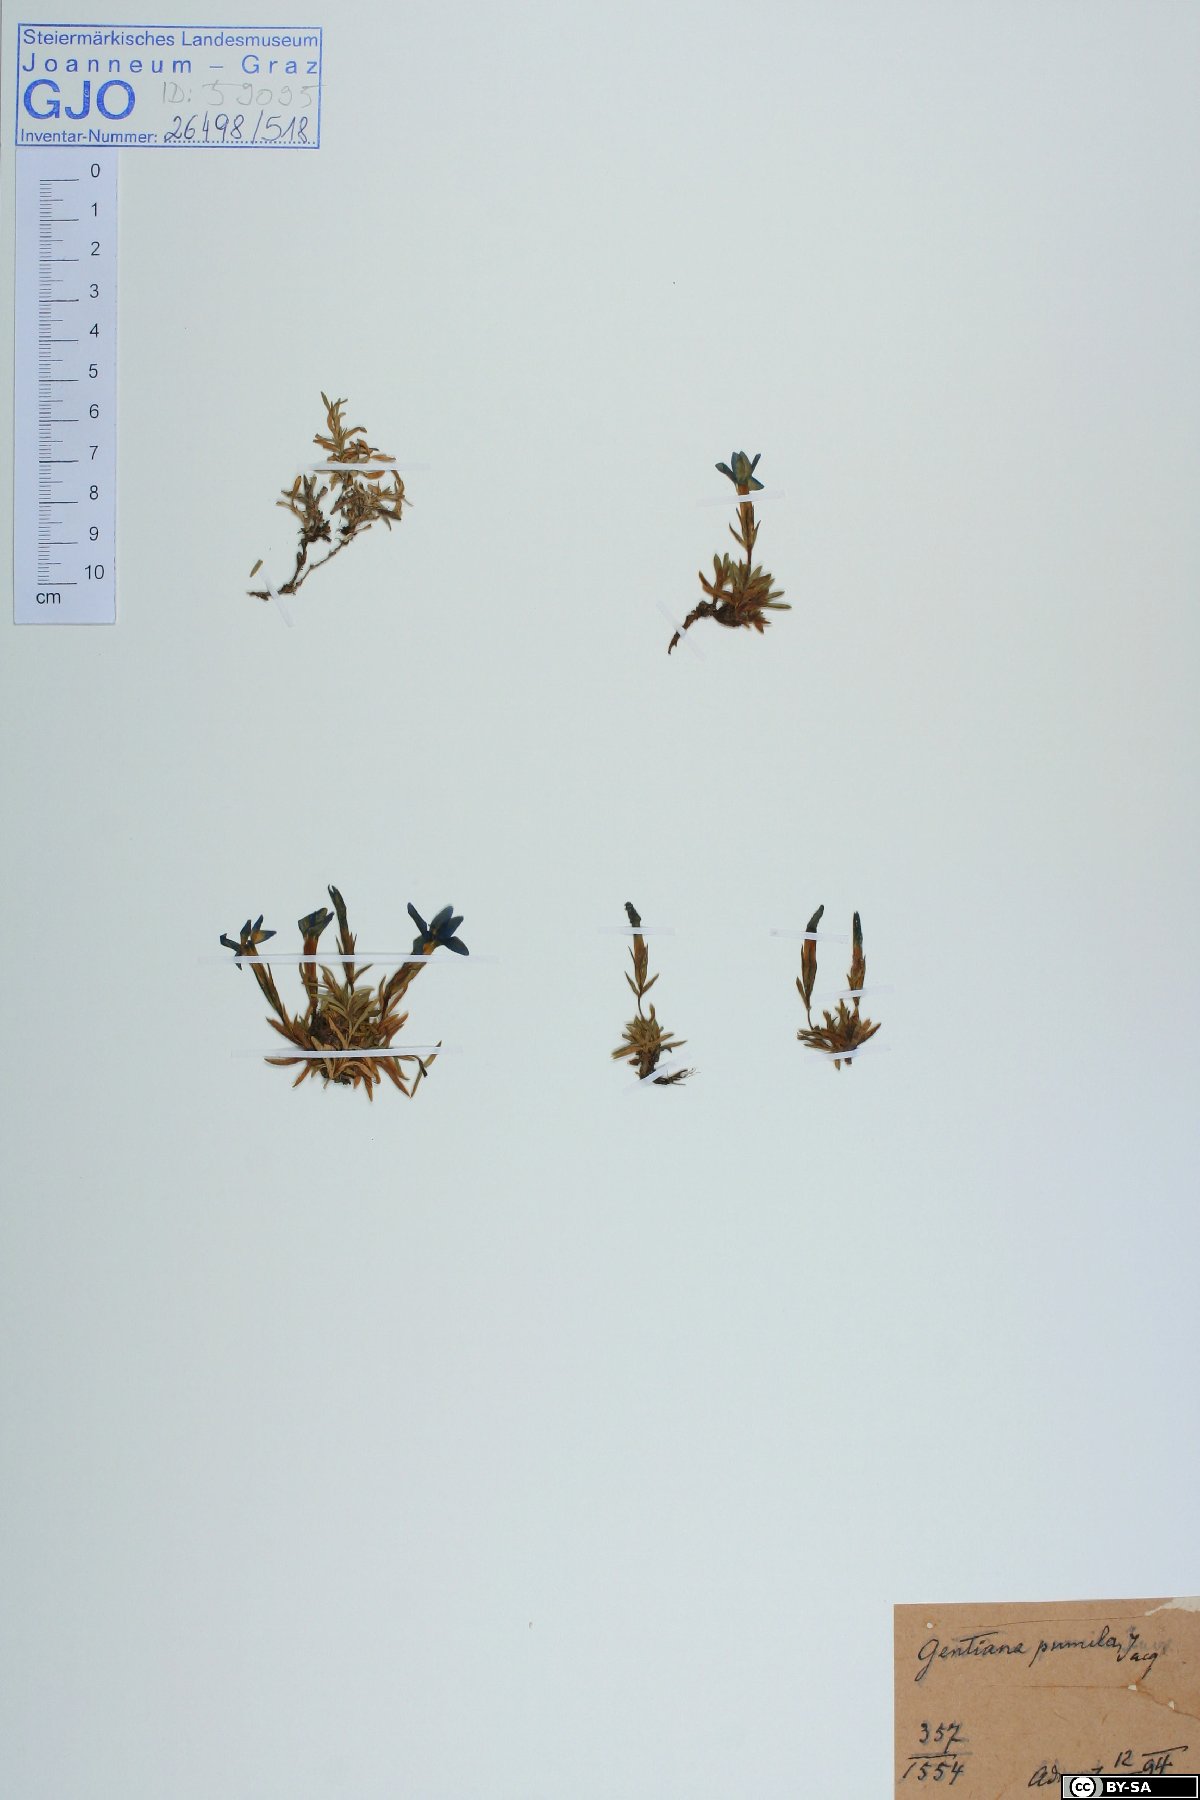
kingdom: Plantae
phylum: Tracheophyta
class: Magnoliopsida
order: Gentianales
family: Gentianaceae
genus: Gentiana
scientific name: Gentiana pumila
